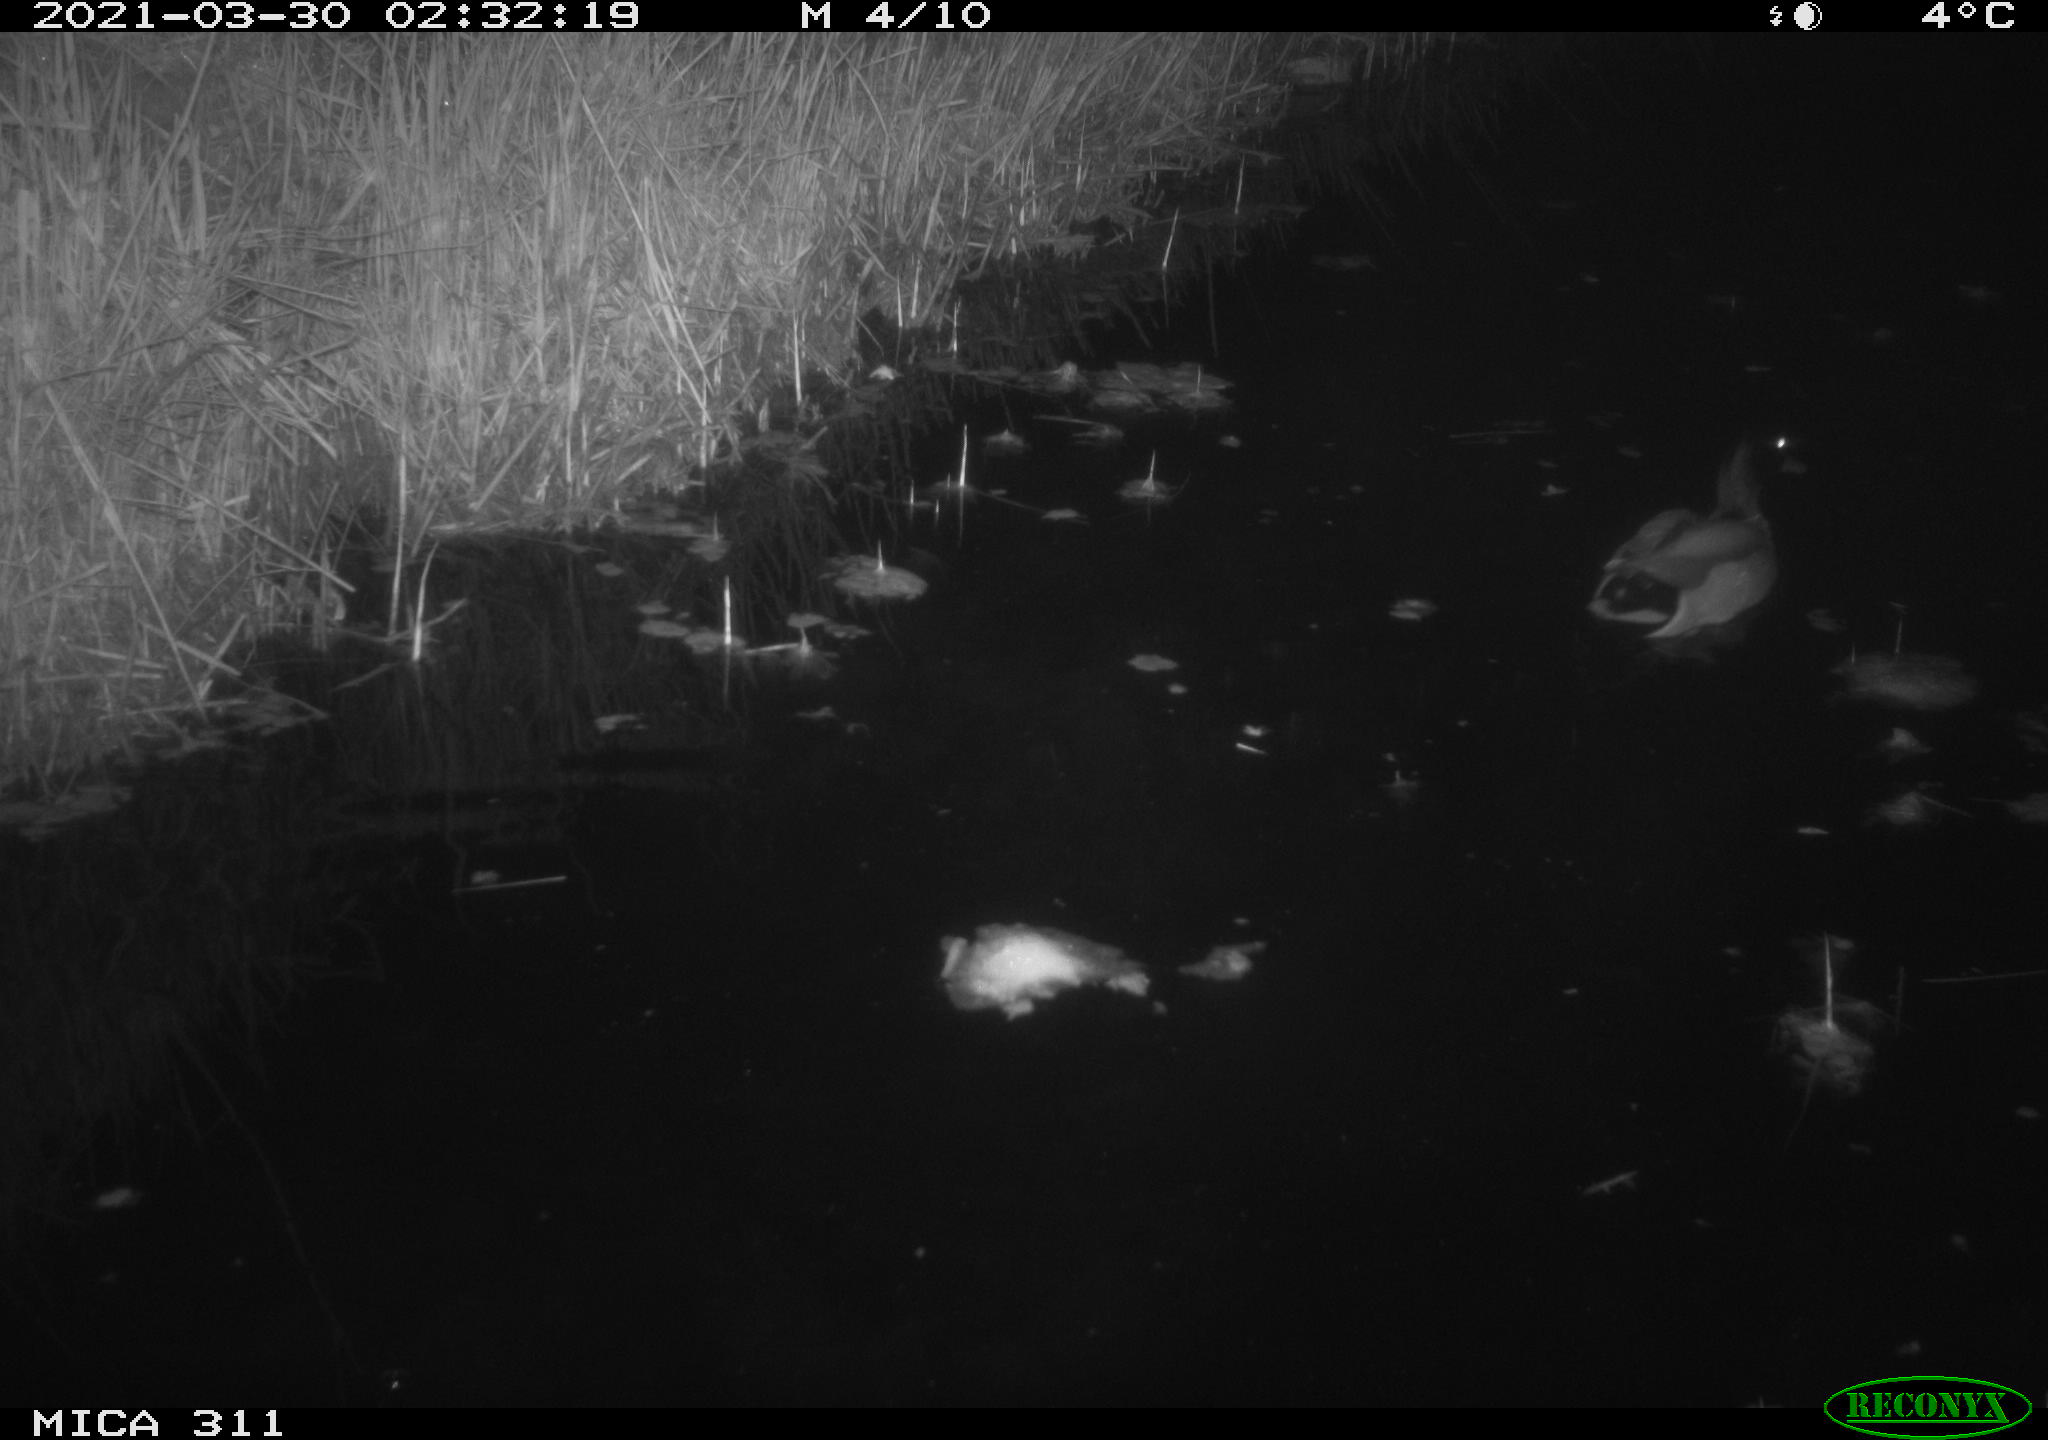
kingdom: Animalia
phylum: Chordata
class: Aves
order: Anseriformes
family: Anatidae
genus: Anas
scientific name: Anas
